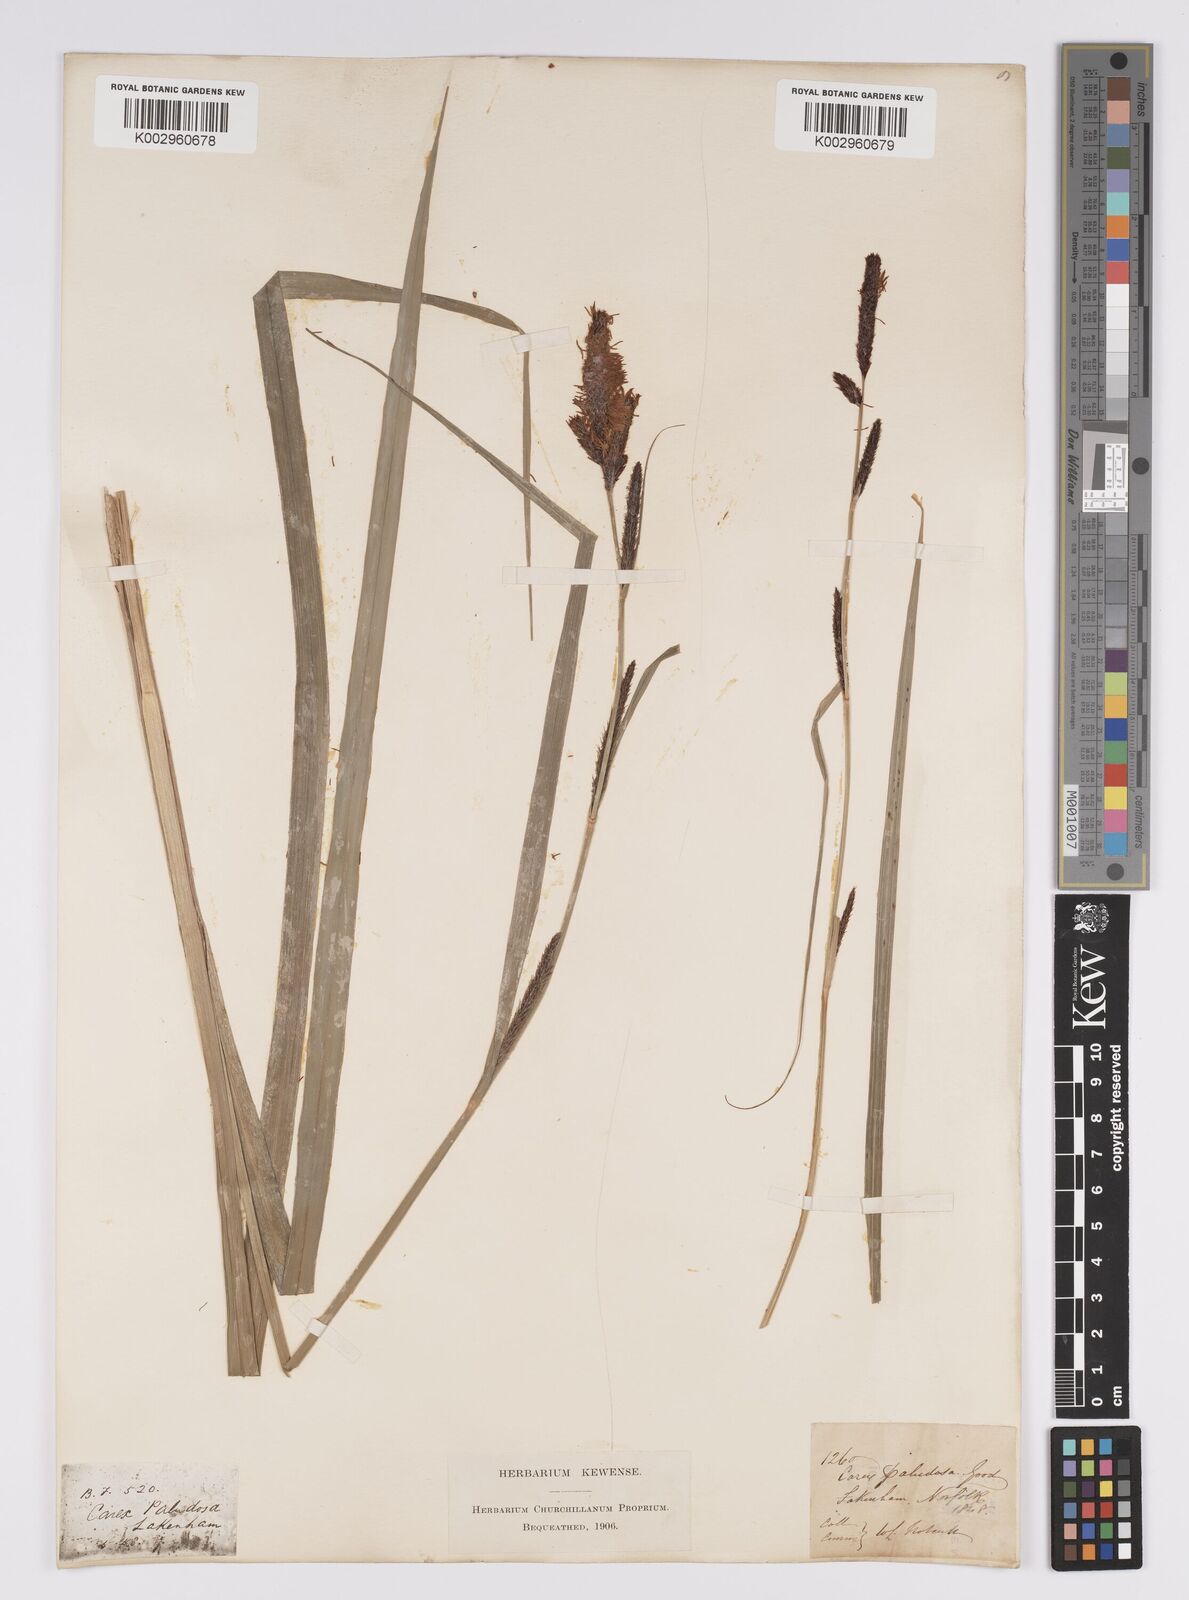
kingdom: Plantae
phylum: Tracheophyta
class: Liliopsida
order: Poales
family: Cyperaceae
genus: Carex
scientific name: Carex acutiformis
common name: Lesser pond-sedge
